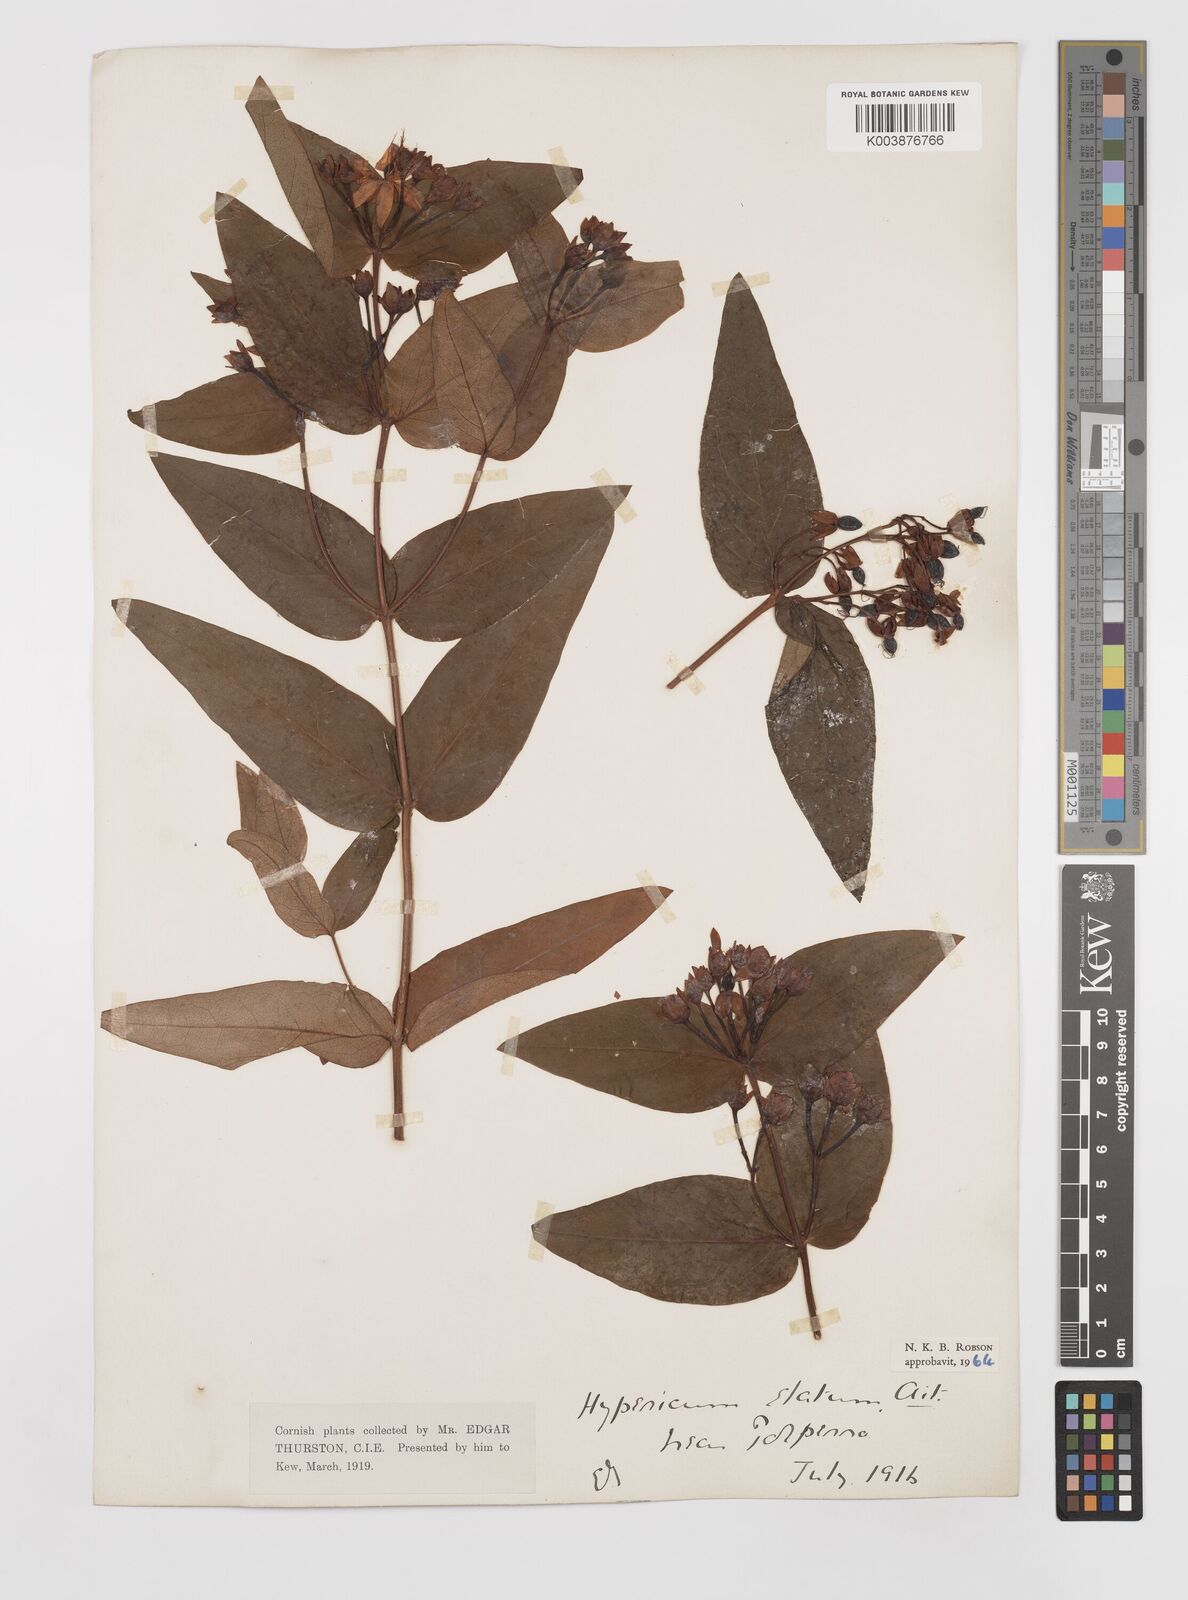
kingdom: Plantae
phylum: Tracheophyta
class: Magnoliopsida
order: Malpighiales
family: Hypericaceae
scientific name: Hypericaceae
